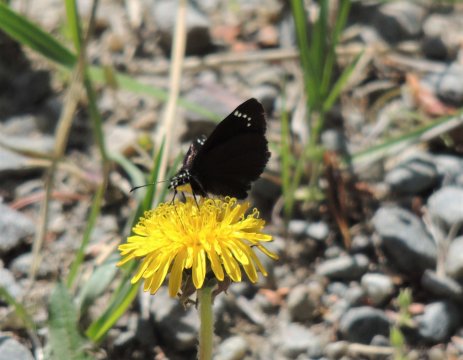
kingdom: Animalia
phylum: Arthropoda
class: Insecta
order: Lepidoptera
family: Hesperiidae
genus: Pholisora
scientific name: Pholisora catullus
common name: Common Sootywing
